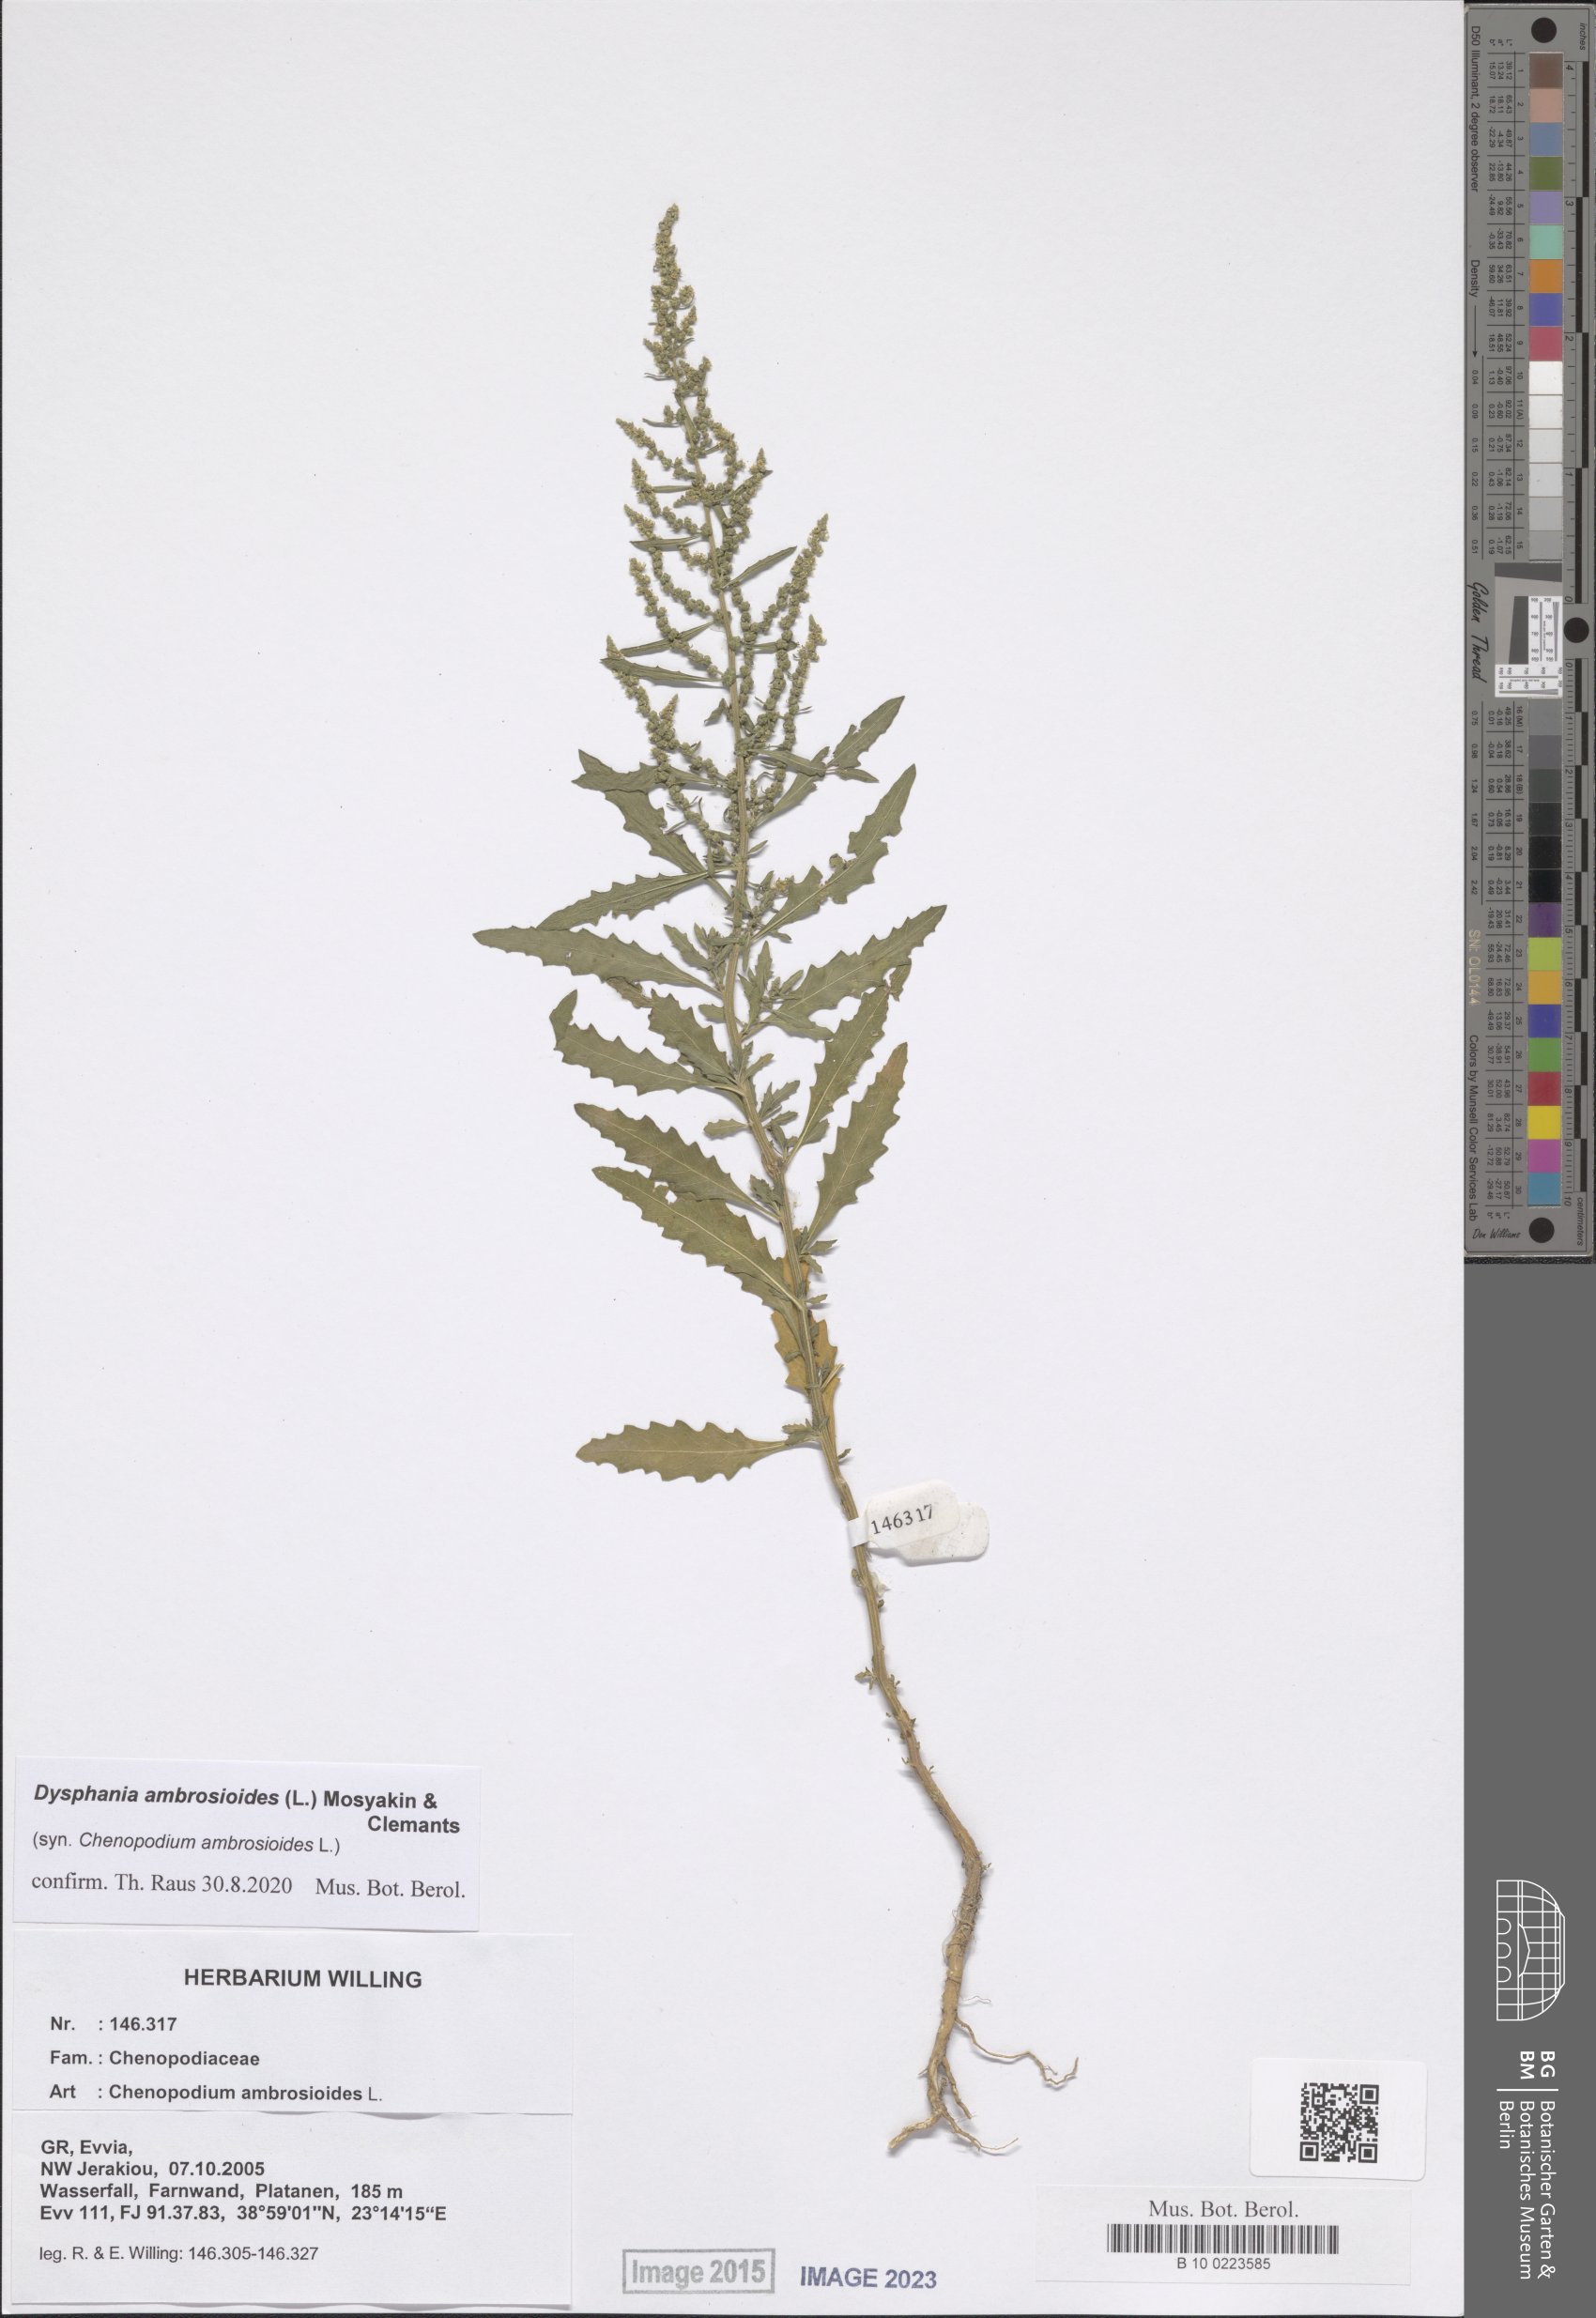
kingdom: Plantae
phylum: Tracheophyta
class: Magnoliopsida
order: Caryophyllales
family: Amaranthaceae
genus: Dysphania
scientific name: Dysphania ambrosioides
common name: Wormseed
